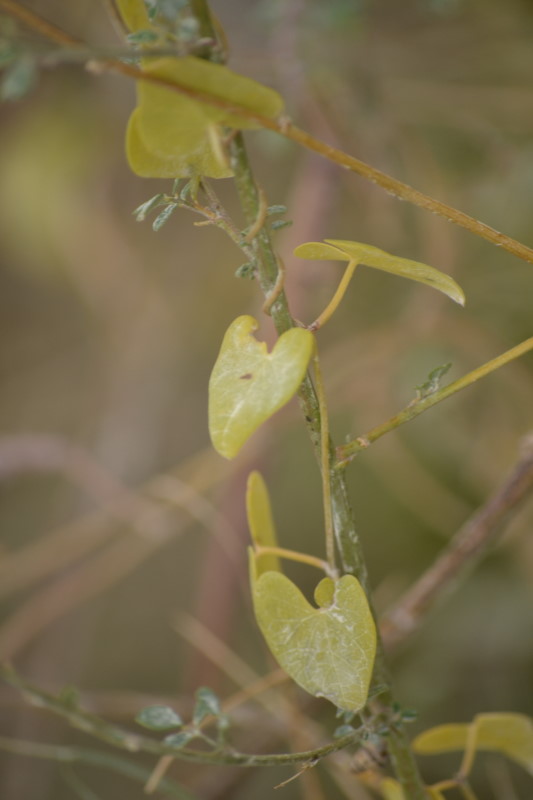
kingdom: Plantae
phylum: Tracheophyta
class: Magnoliopsida
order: Gentianales
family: Apocynaceae
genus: Cynanchum
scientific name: Cynanchum acutum
